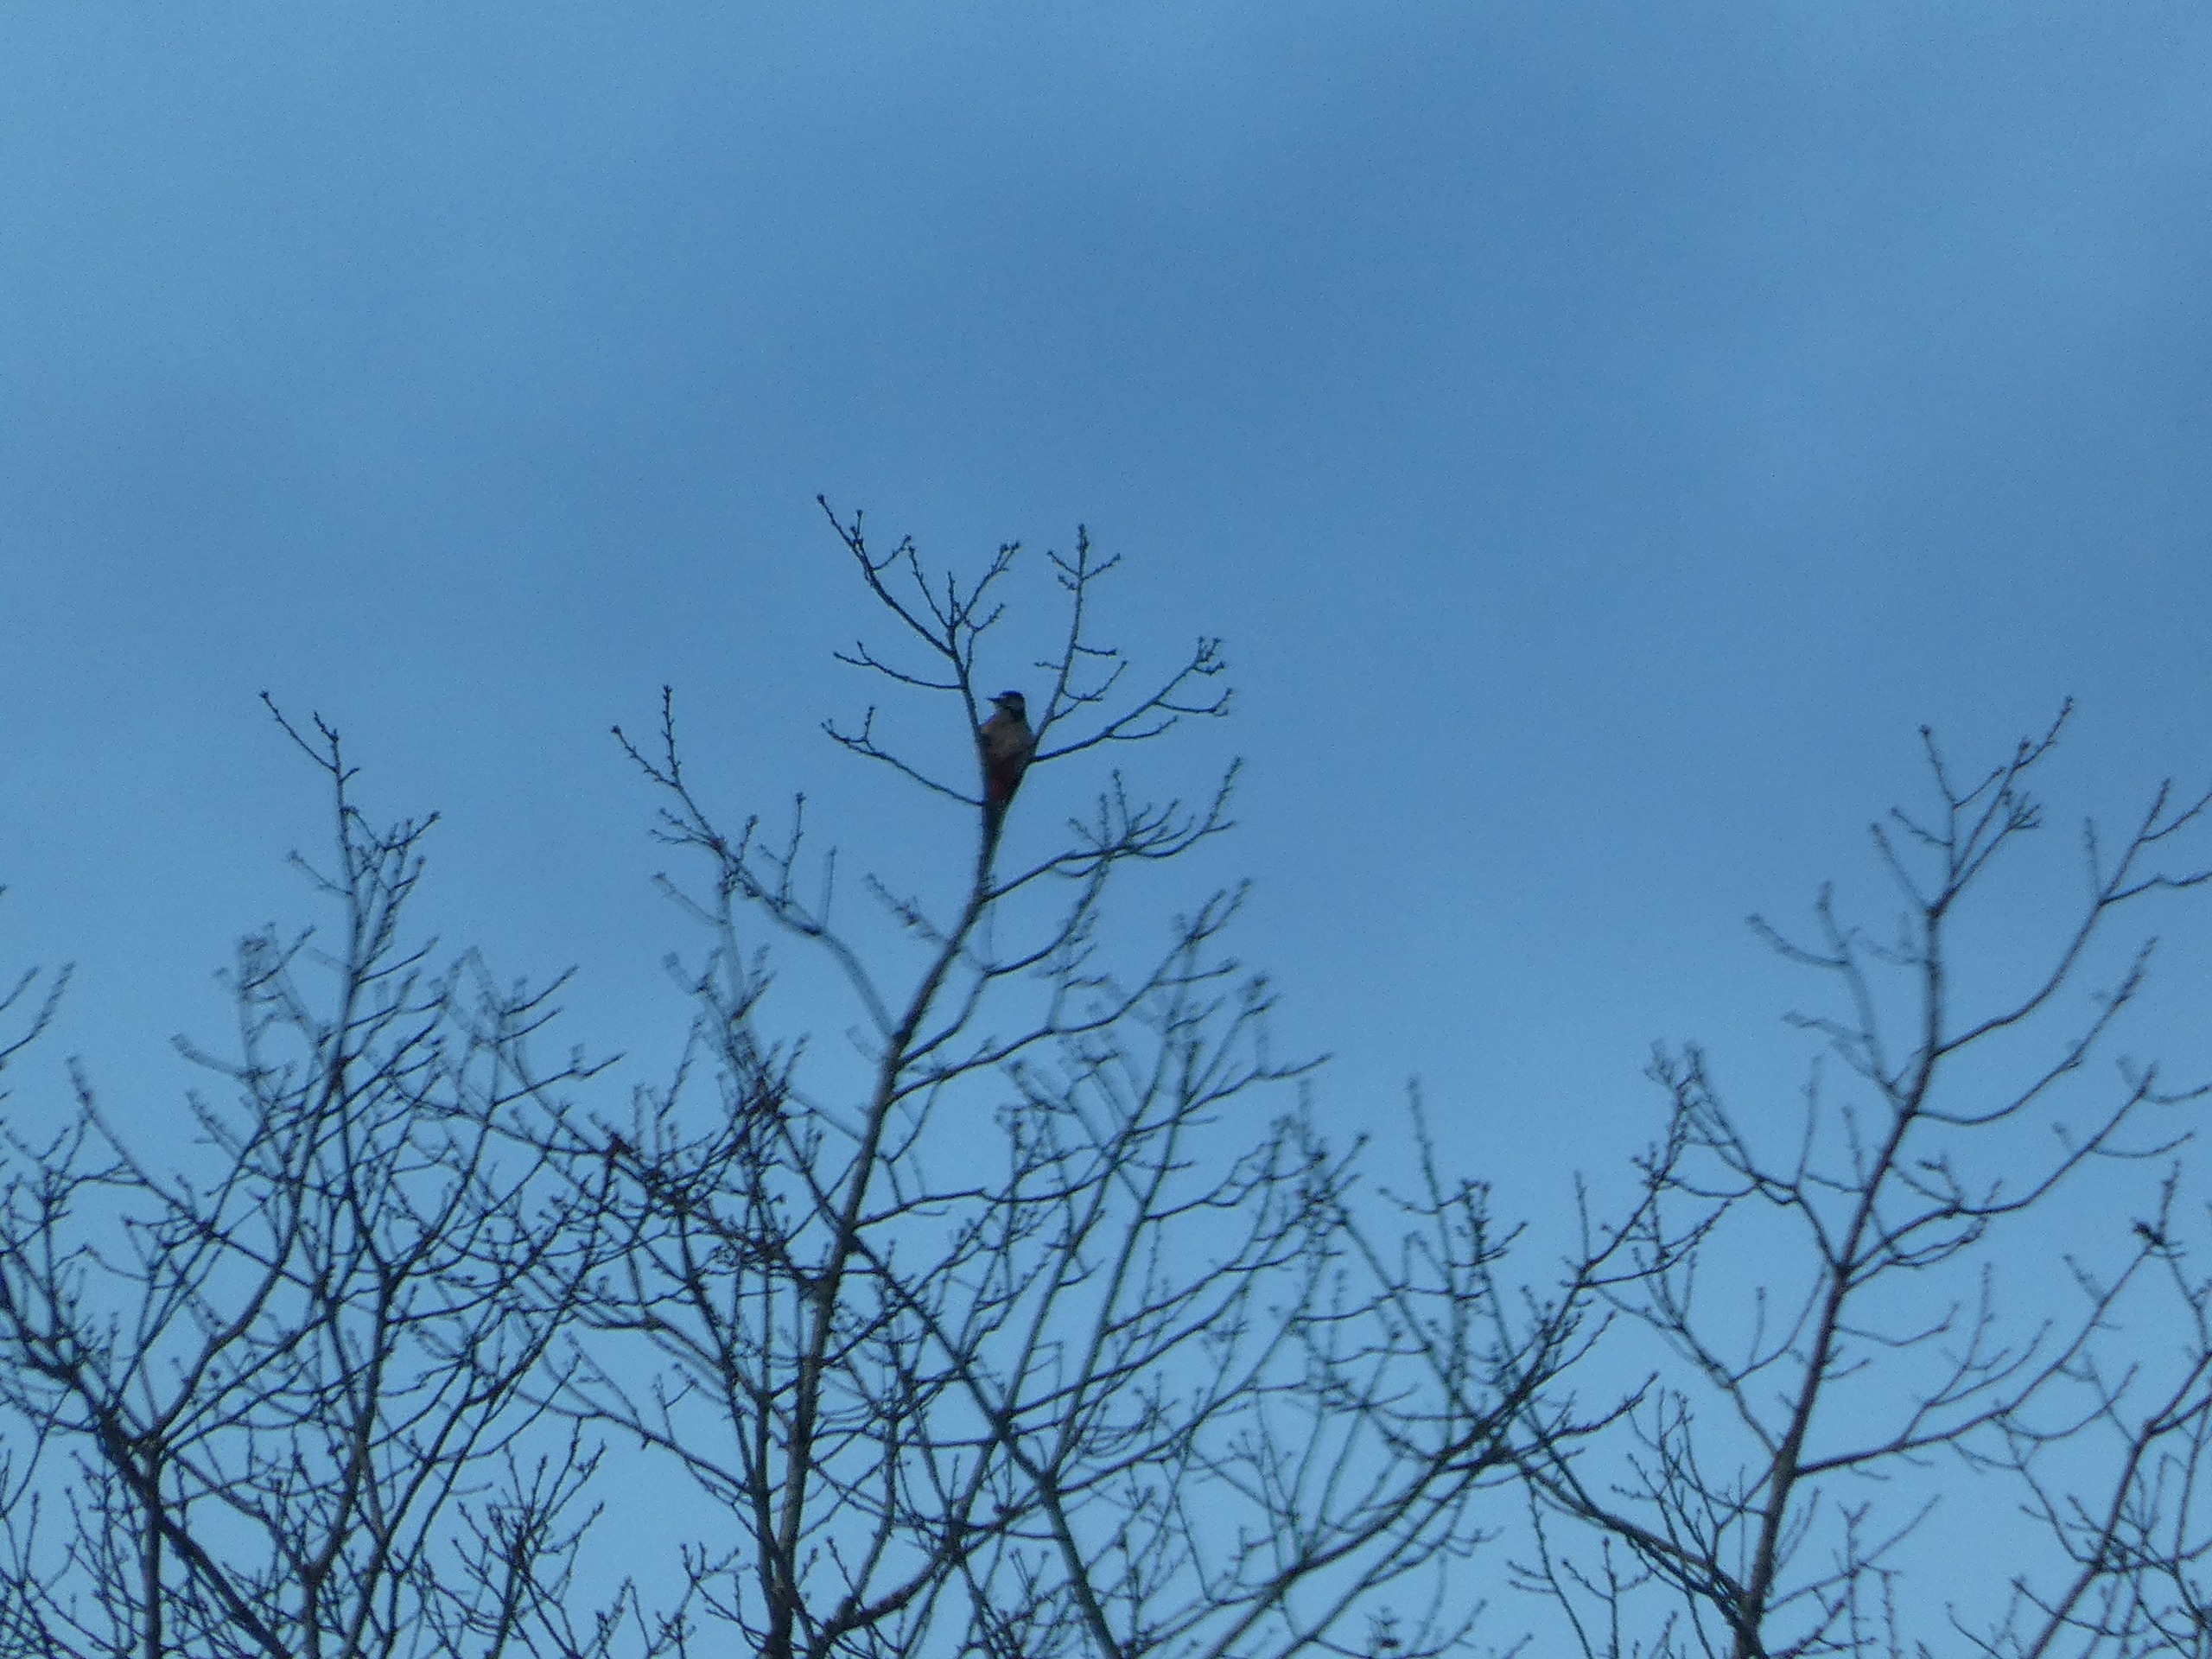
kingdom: Animalia
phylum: Chordata
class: Aves
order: Piciformes
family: Picidae
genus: Dendrocopos
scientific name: Dendrocopos major
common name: Stor flagspætte
